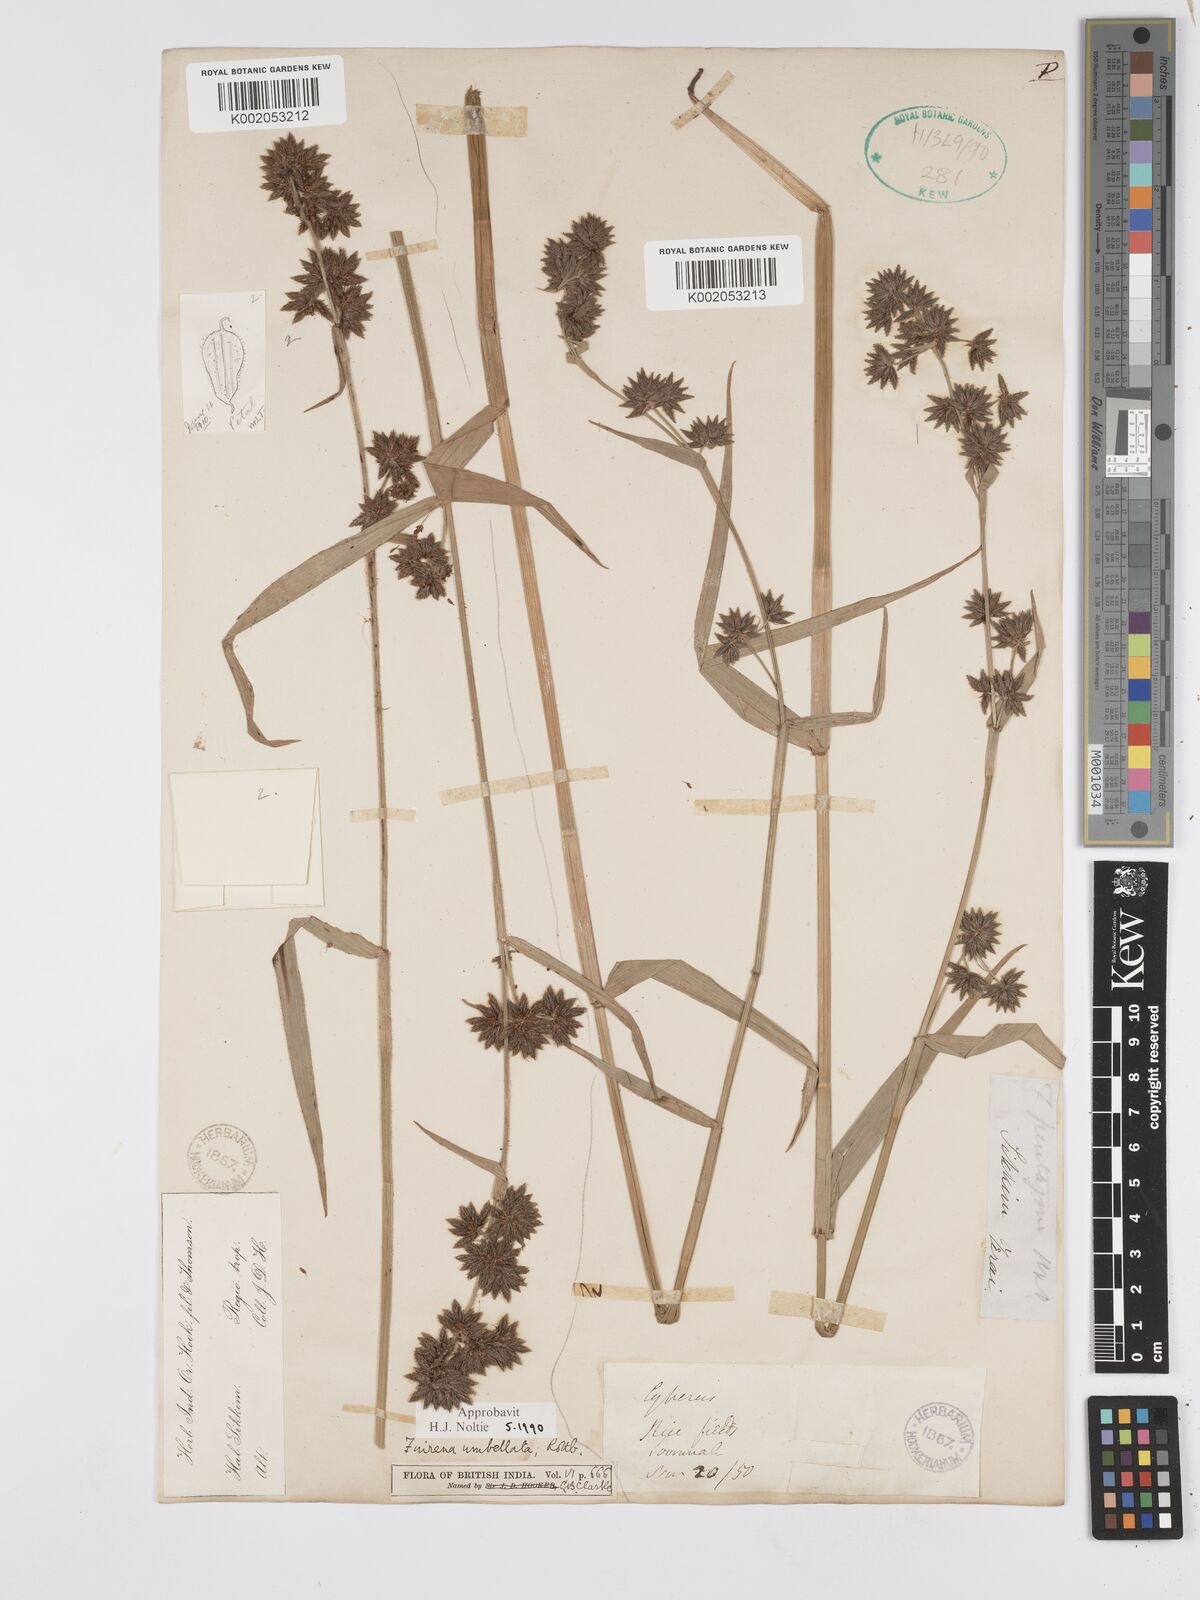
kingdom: Plantae
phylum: Tracheophyta
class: Liliopsida
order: Poales
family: Cyperaceae
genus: Fuirena
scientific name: Fuirena umbellata
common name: Yefen
